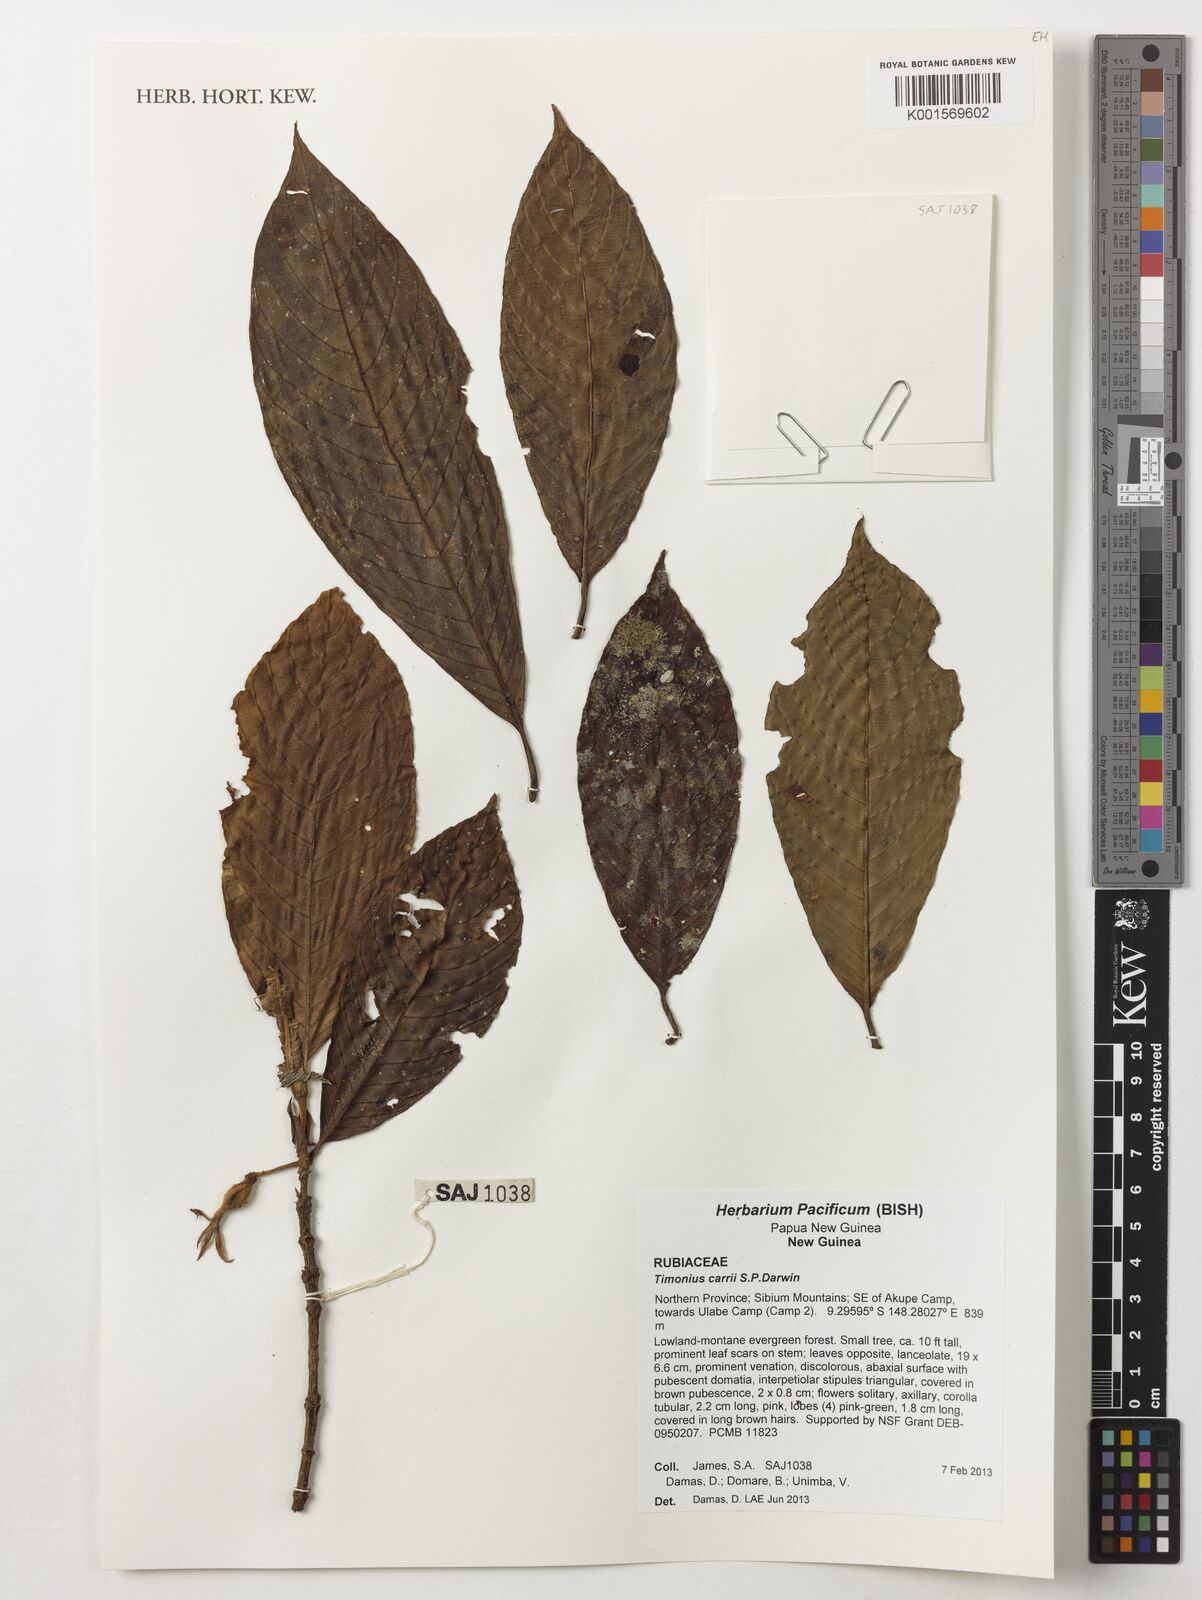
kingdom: Plantae
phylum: Tracheophyta
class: Magnoliopsida
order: Gentianales
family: Rubiaceae
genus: Timonius
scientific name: Timonius carii
